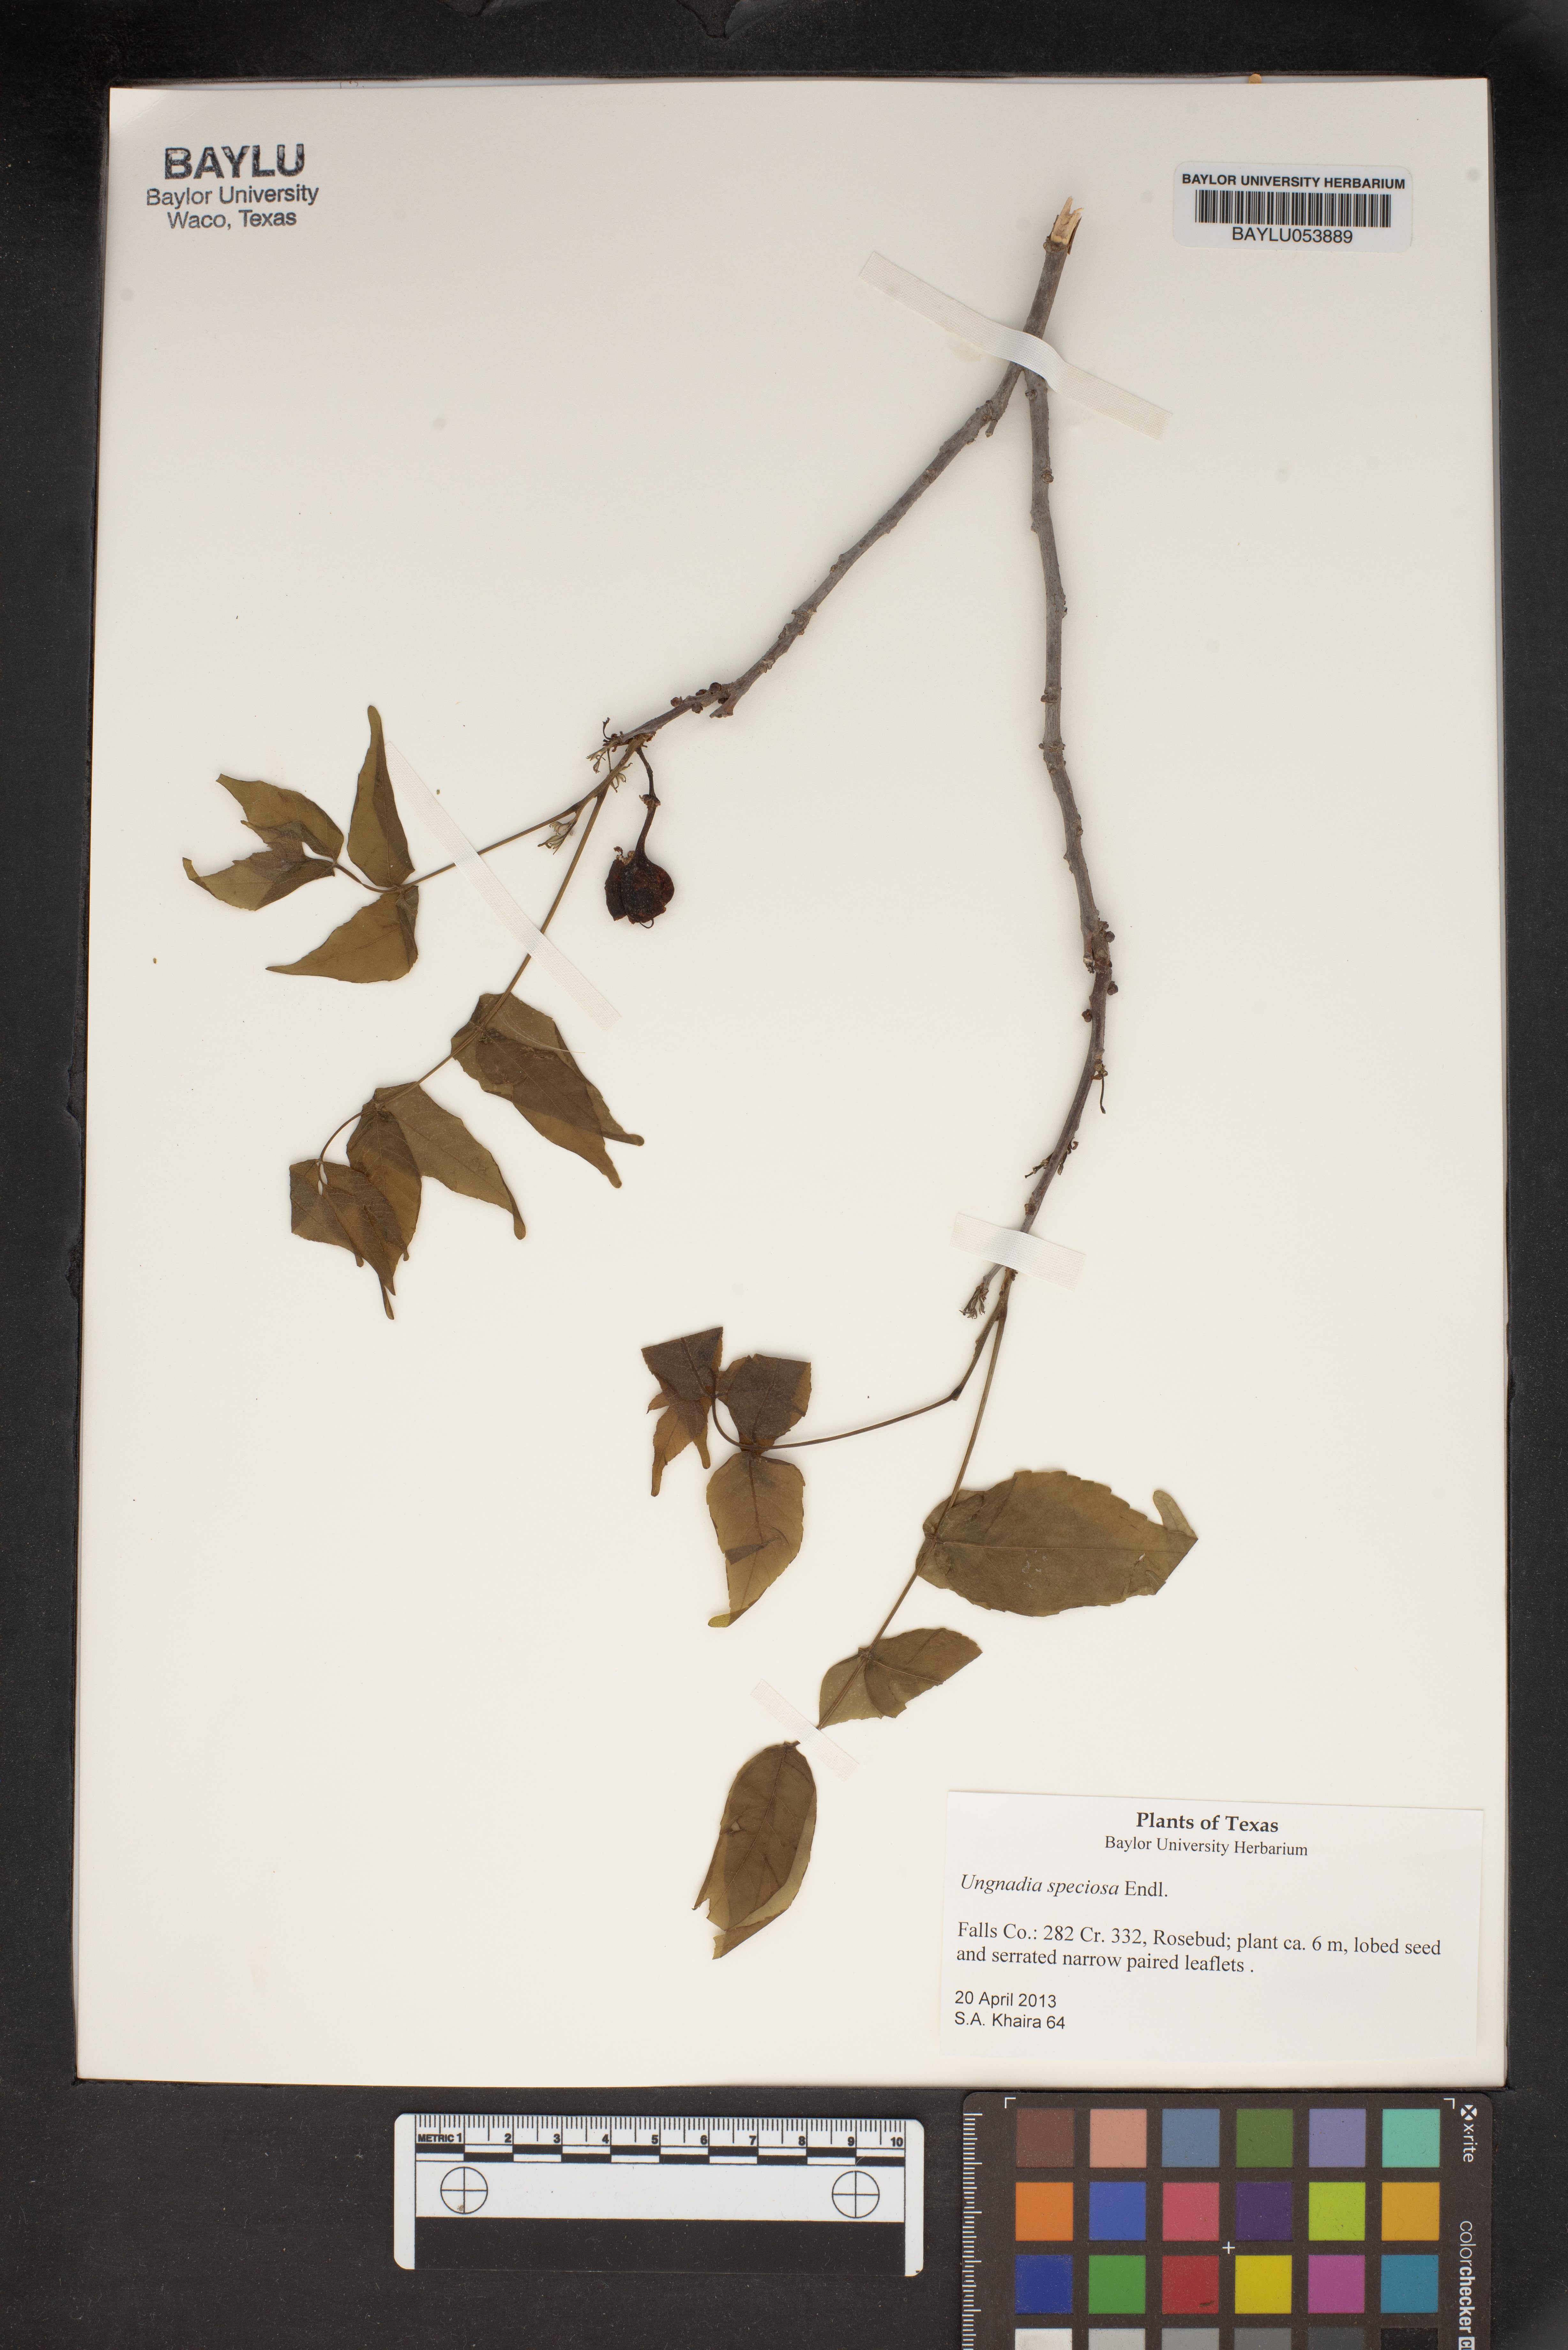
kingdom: Plantae
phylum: Tracheophyta
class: Magnoliopsida
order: Sapindales
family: Sapindaceae
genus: Ungnadia
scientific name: Ungnadia speciosa
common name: Texas-buckeye
